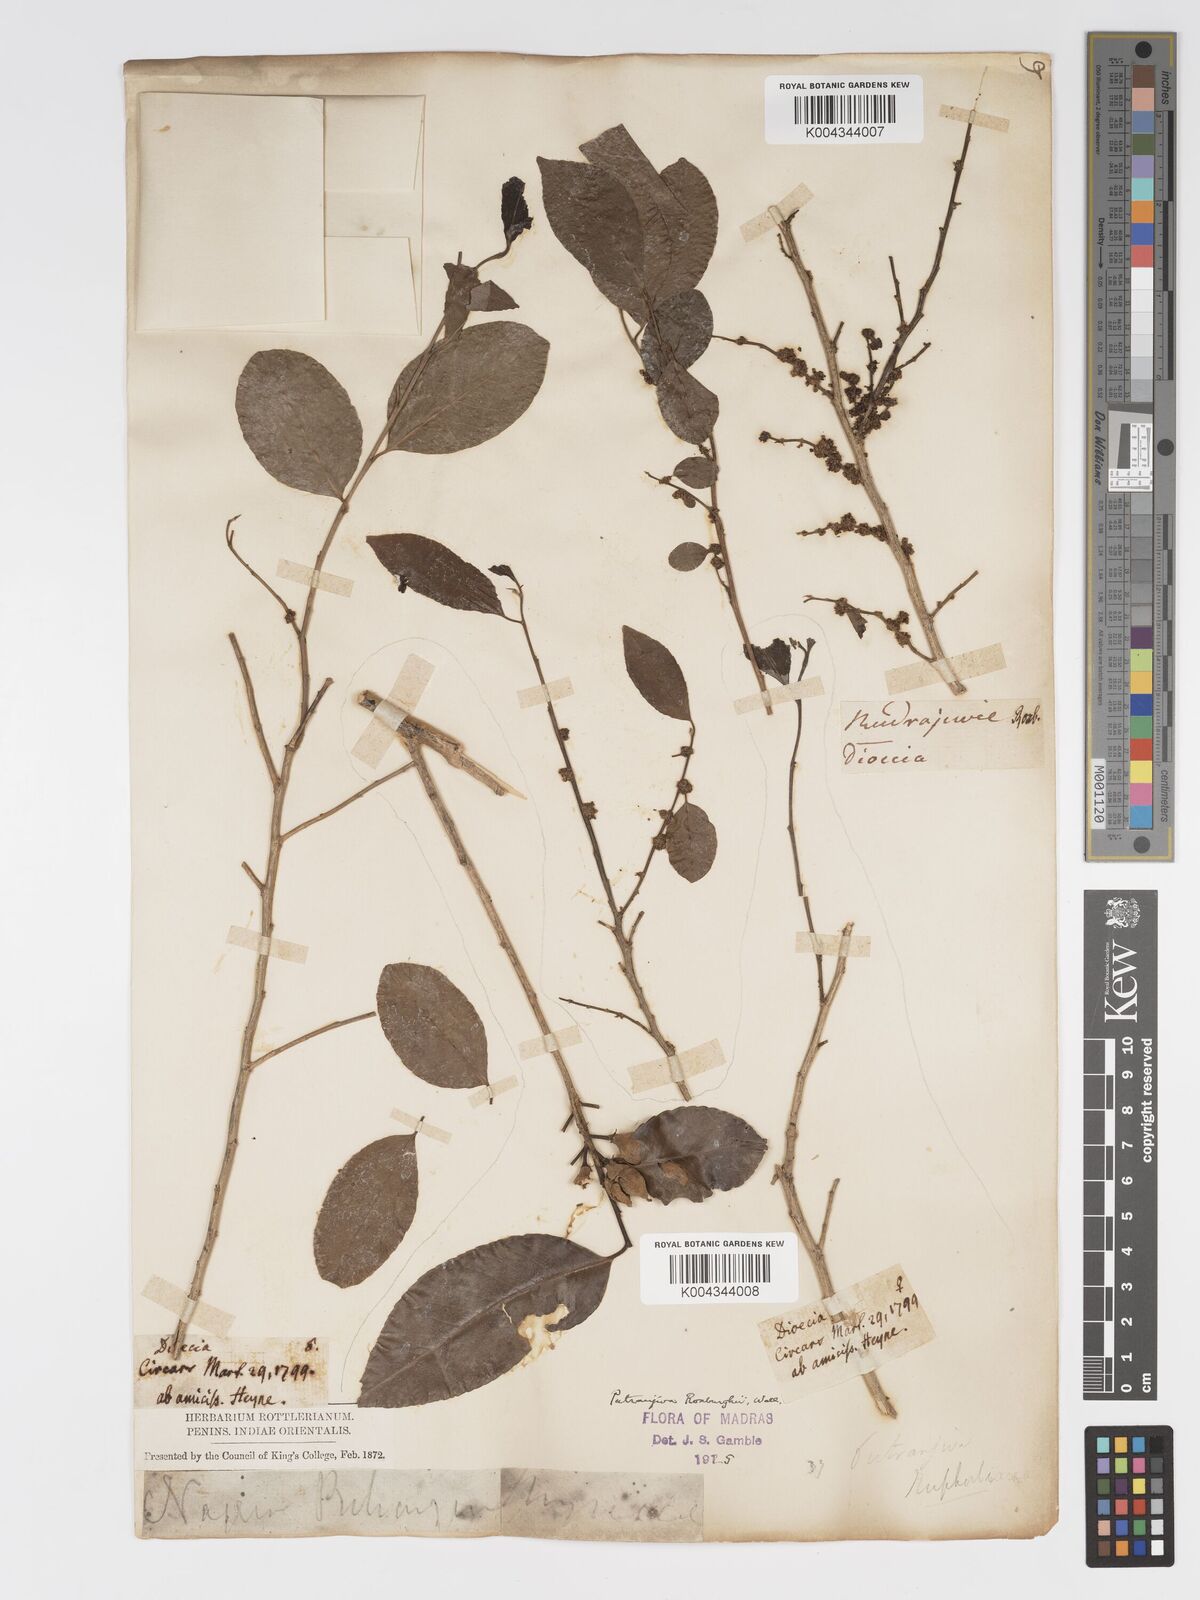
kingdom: Plantae
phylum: Tracheophyta
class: Magnoliopsida
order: Malpighiales
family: Putranjivaceae
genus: Putranjiva
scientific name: Putranjiva roxburghii
